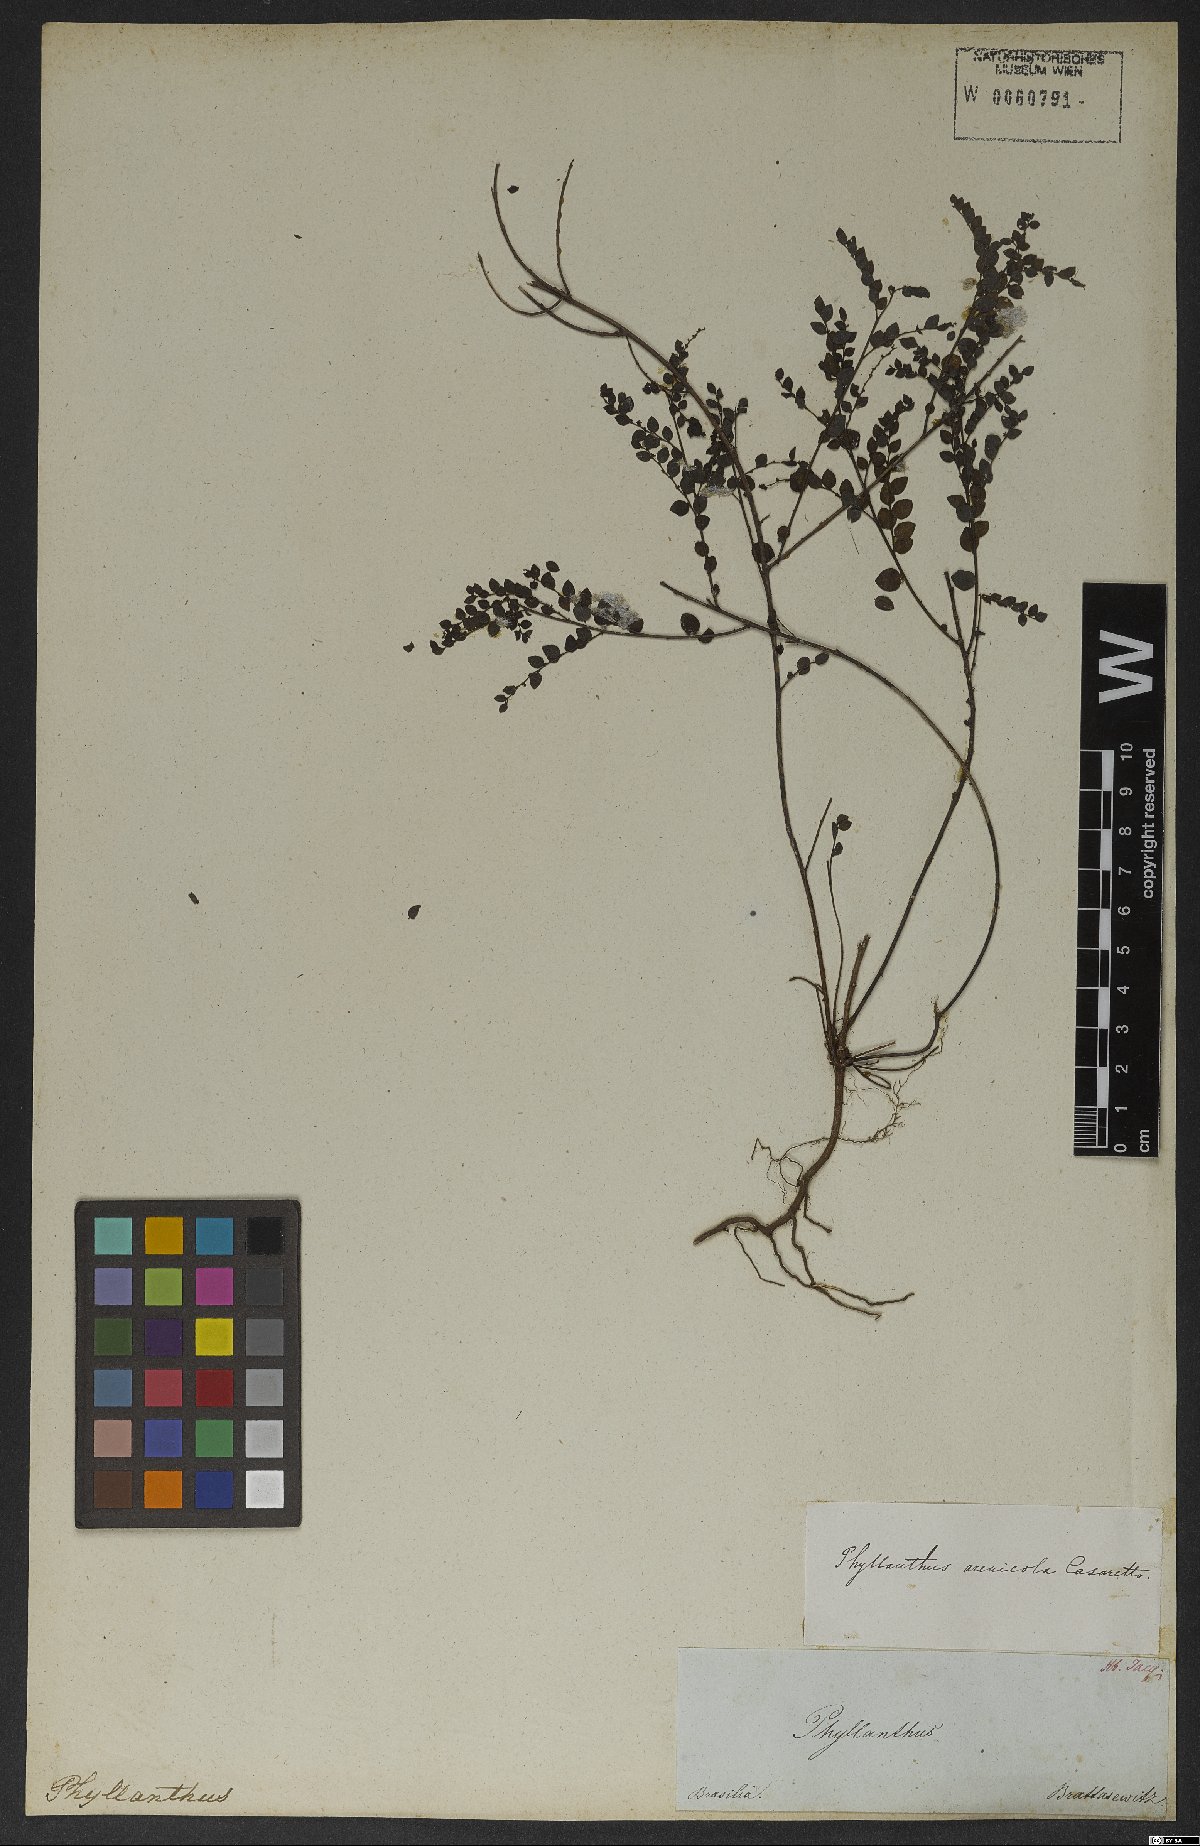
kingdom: Plantae
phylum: Tracheophyta
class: Magnoliopsida
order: Malpighiales
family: Phyllanthaceae
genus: Phyllanthus
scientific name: Phyllanthus arenicola
